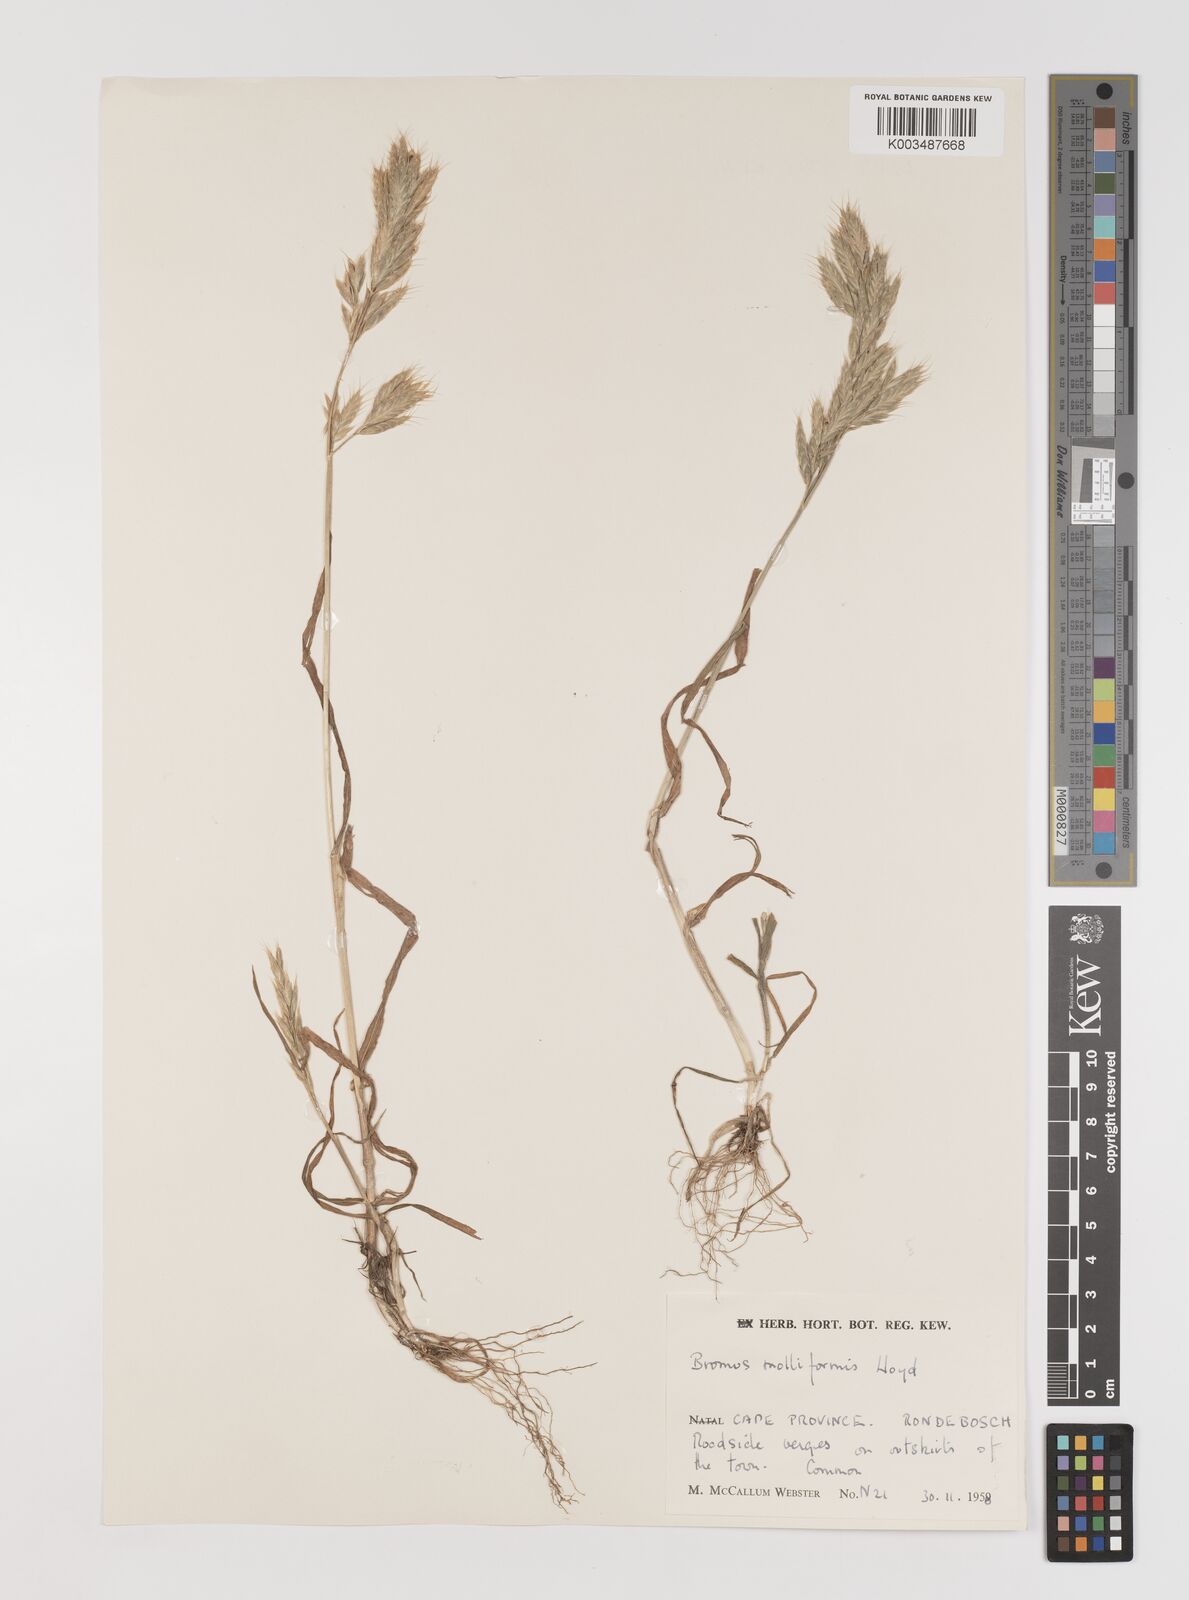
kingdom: Plantae
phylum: Tracheophyta
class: Liliopsida
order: Poales
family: Poaceae
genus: Bromus
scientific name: Bromus hordeaceus
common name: Soft brome
